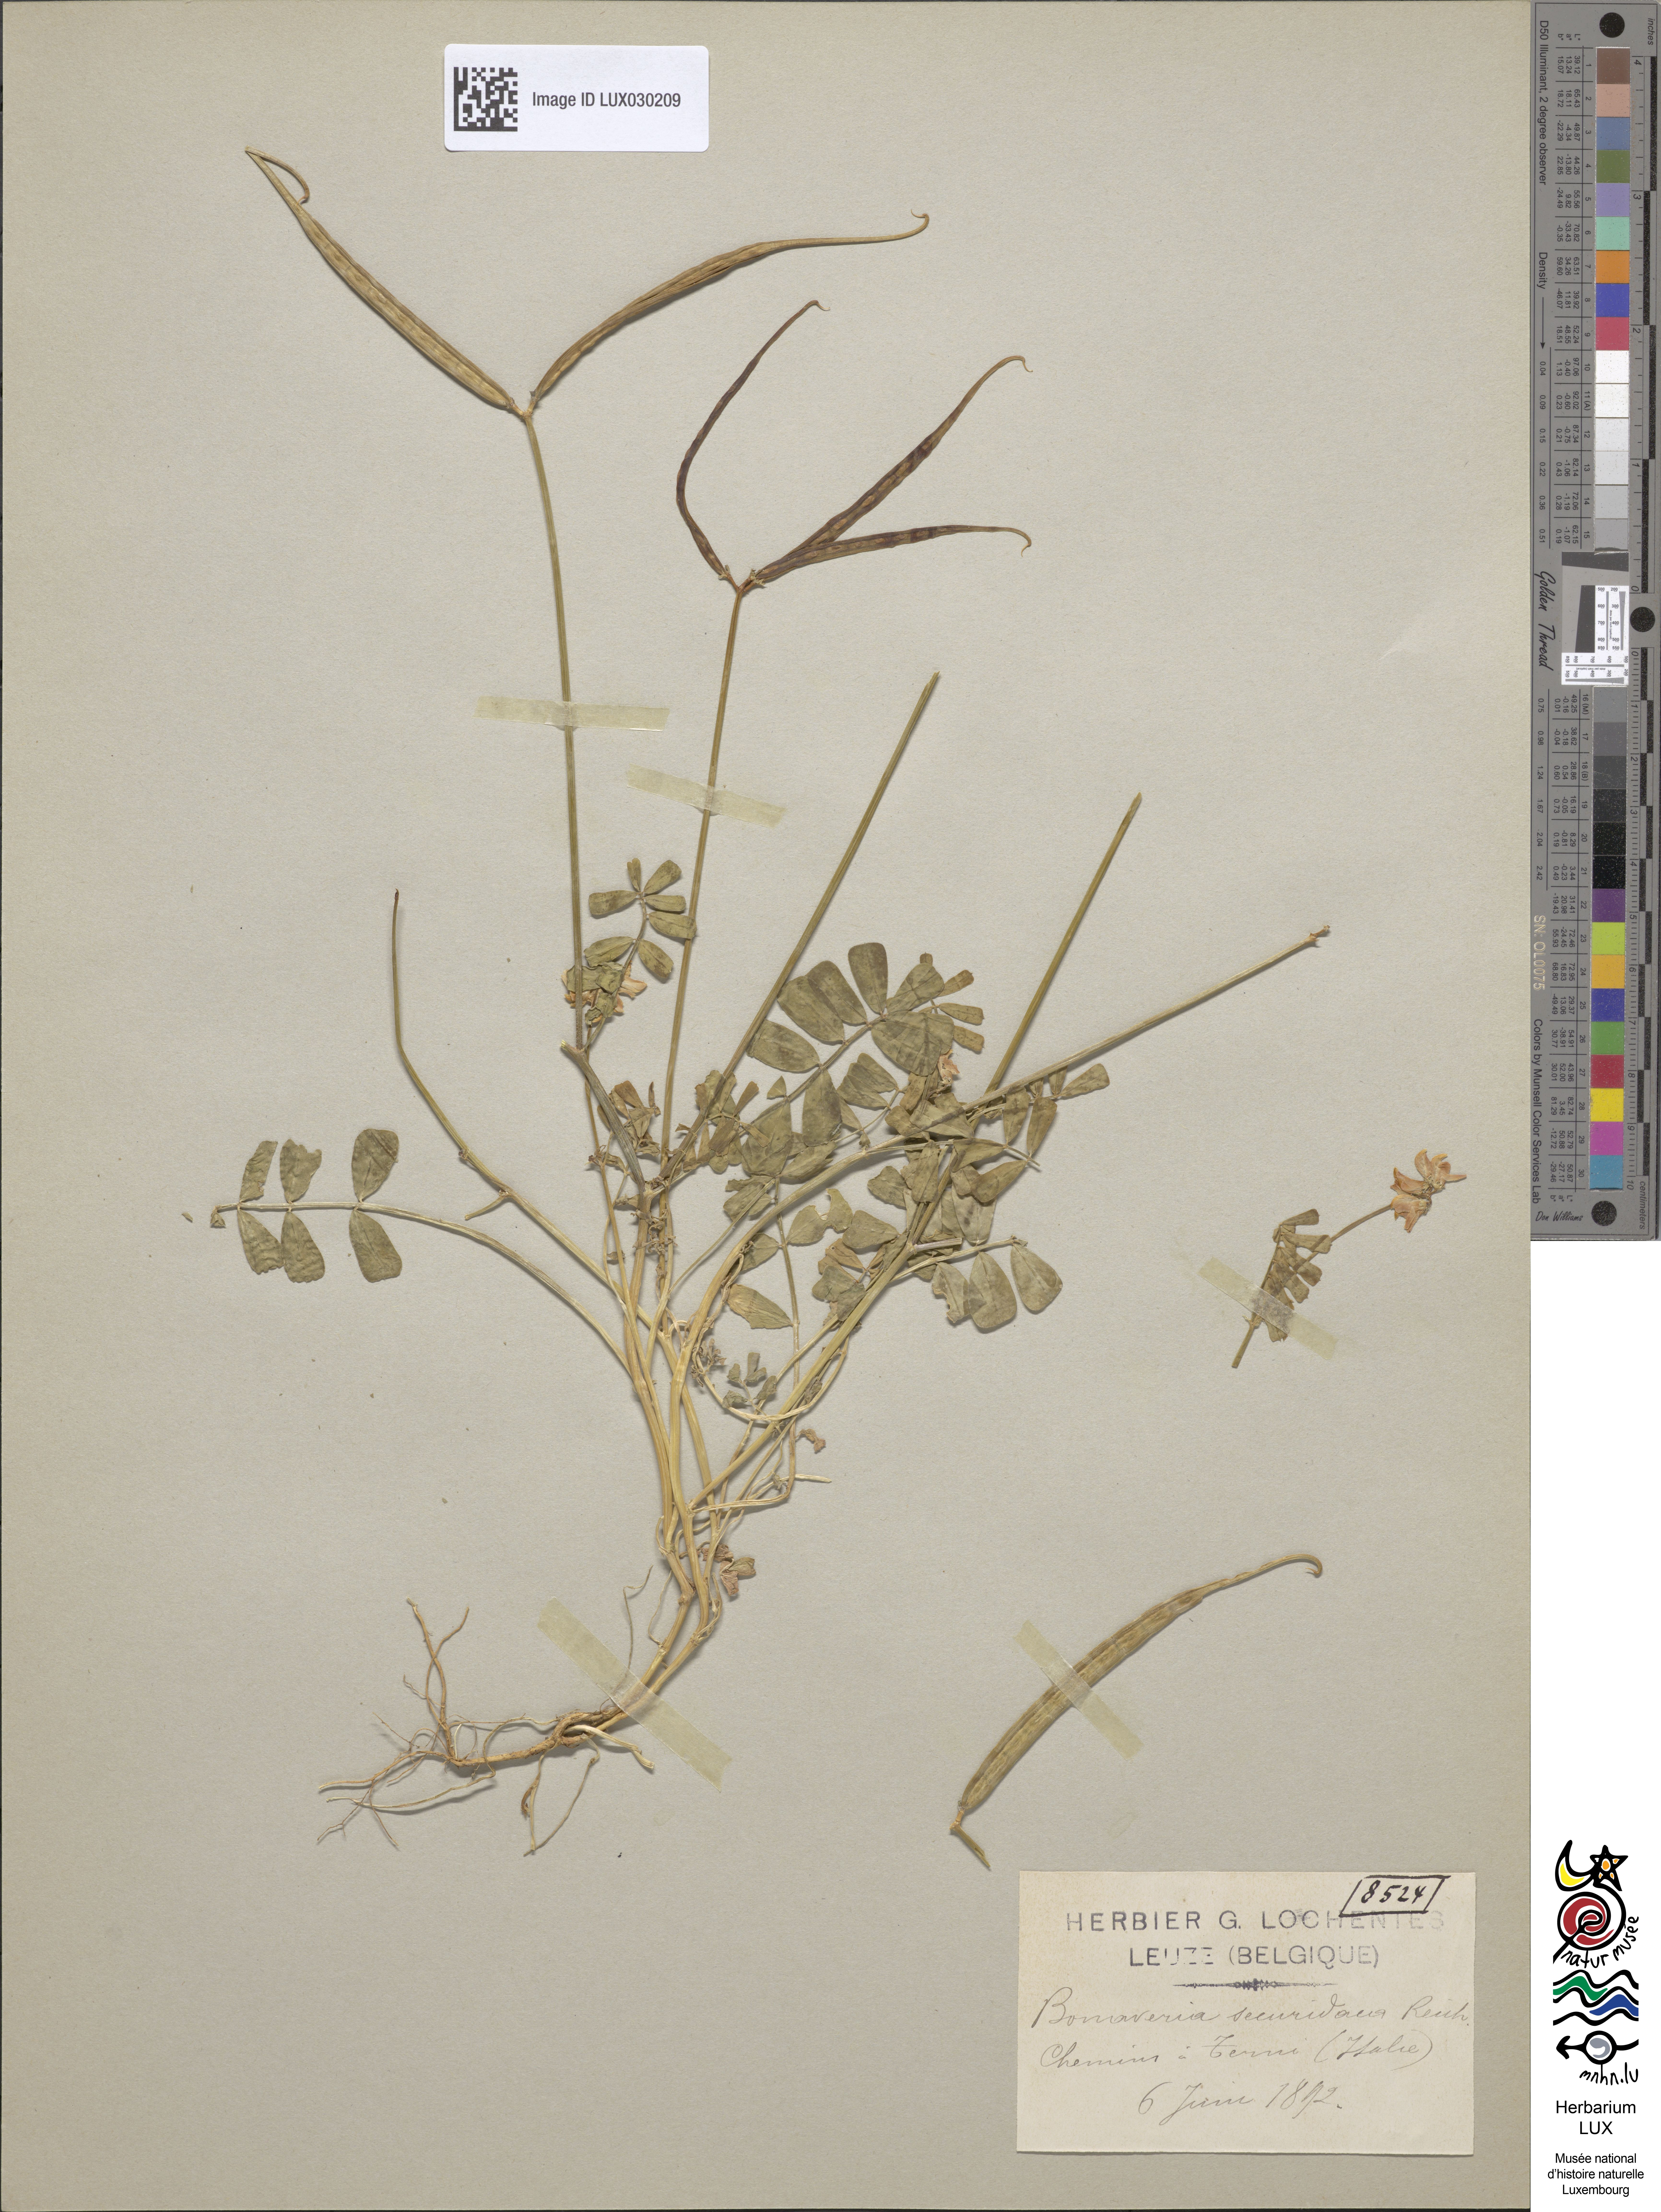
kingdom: Plantae
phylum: Tracheophyta
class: Magnoliopsida
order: Fabales
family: Fabaceae
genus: Coronilla
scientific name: Coronilla securidaca
